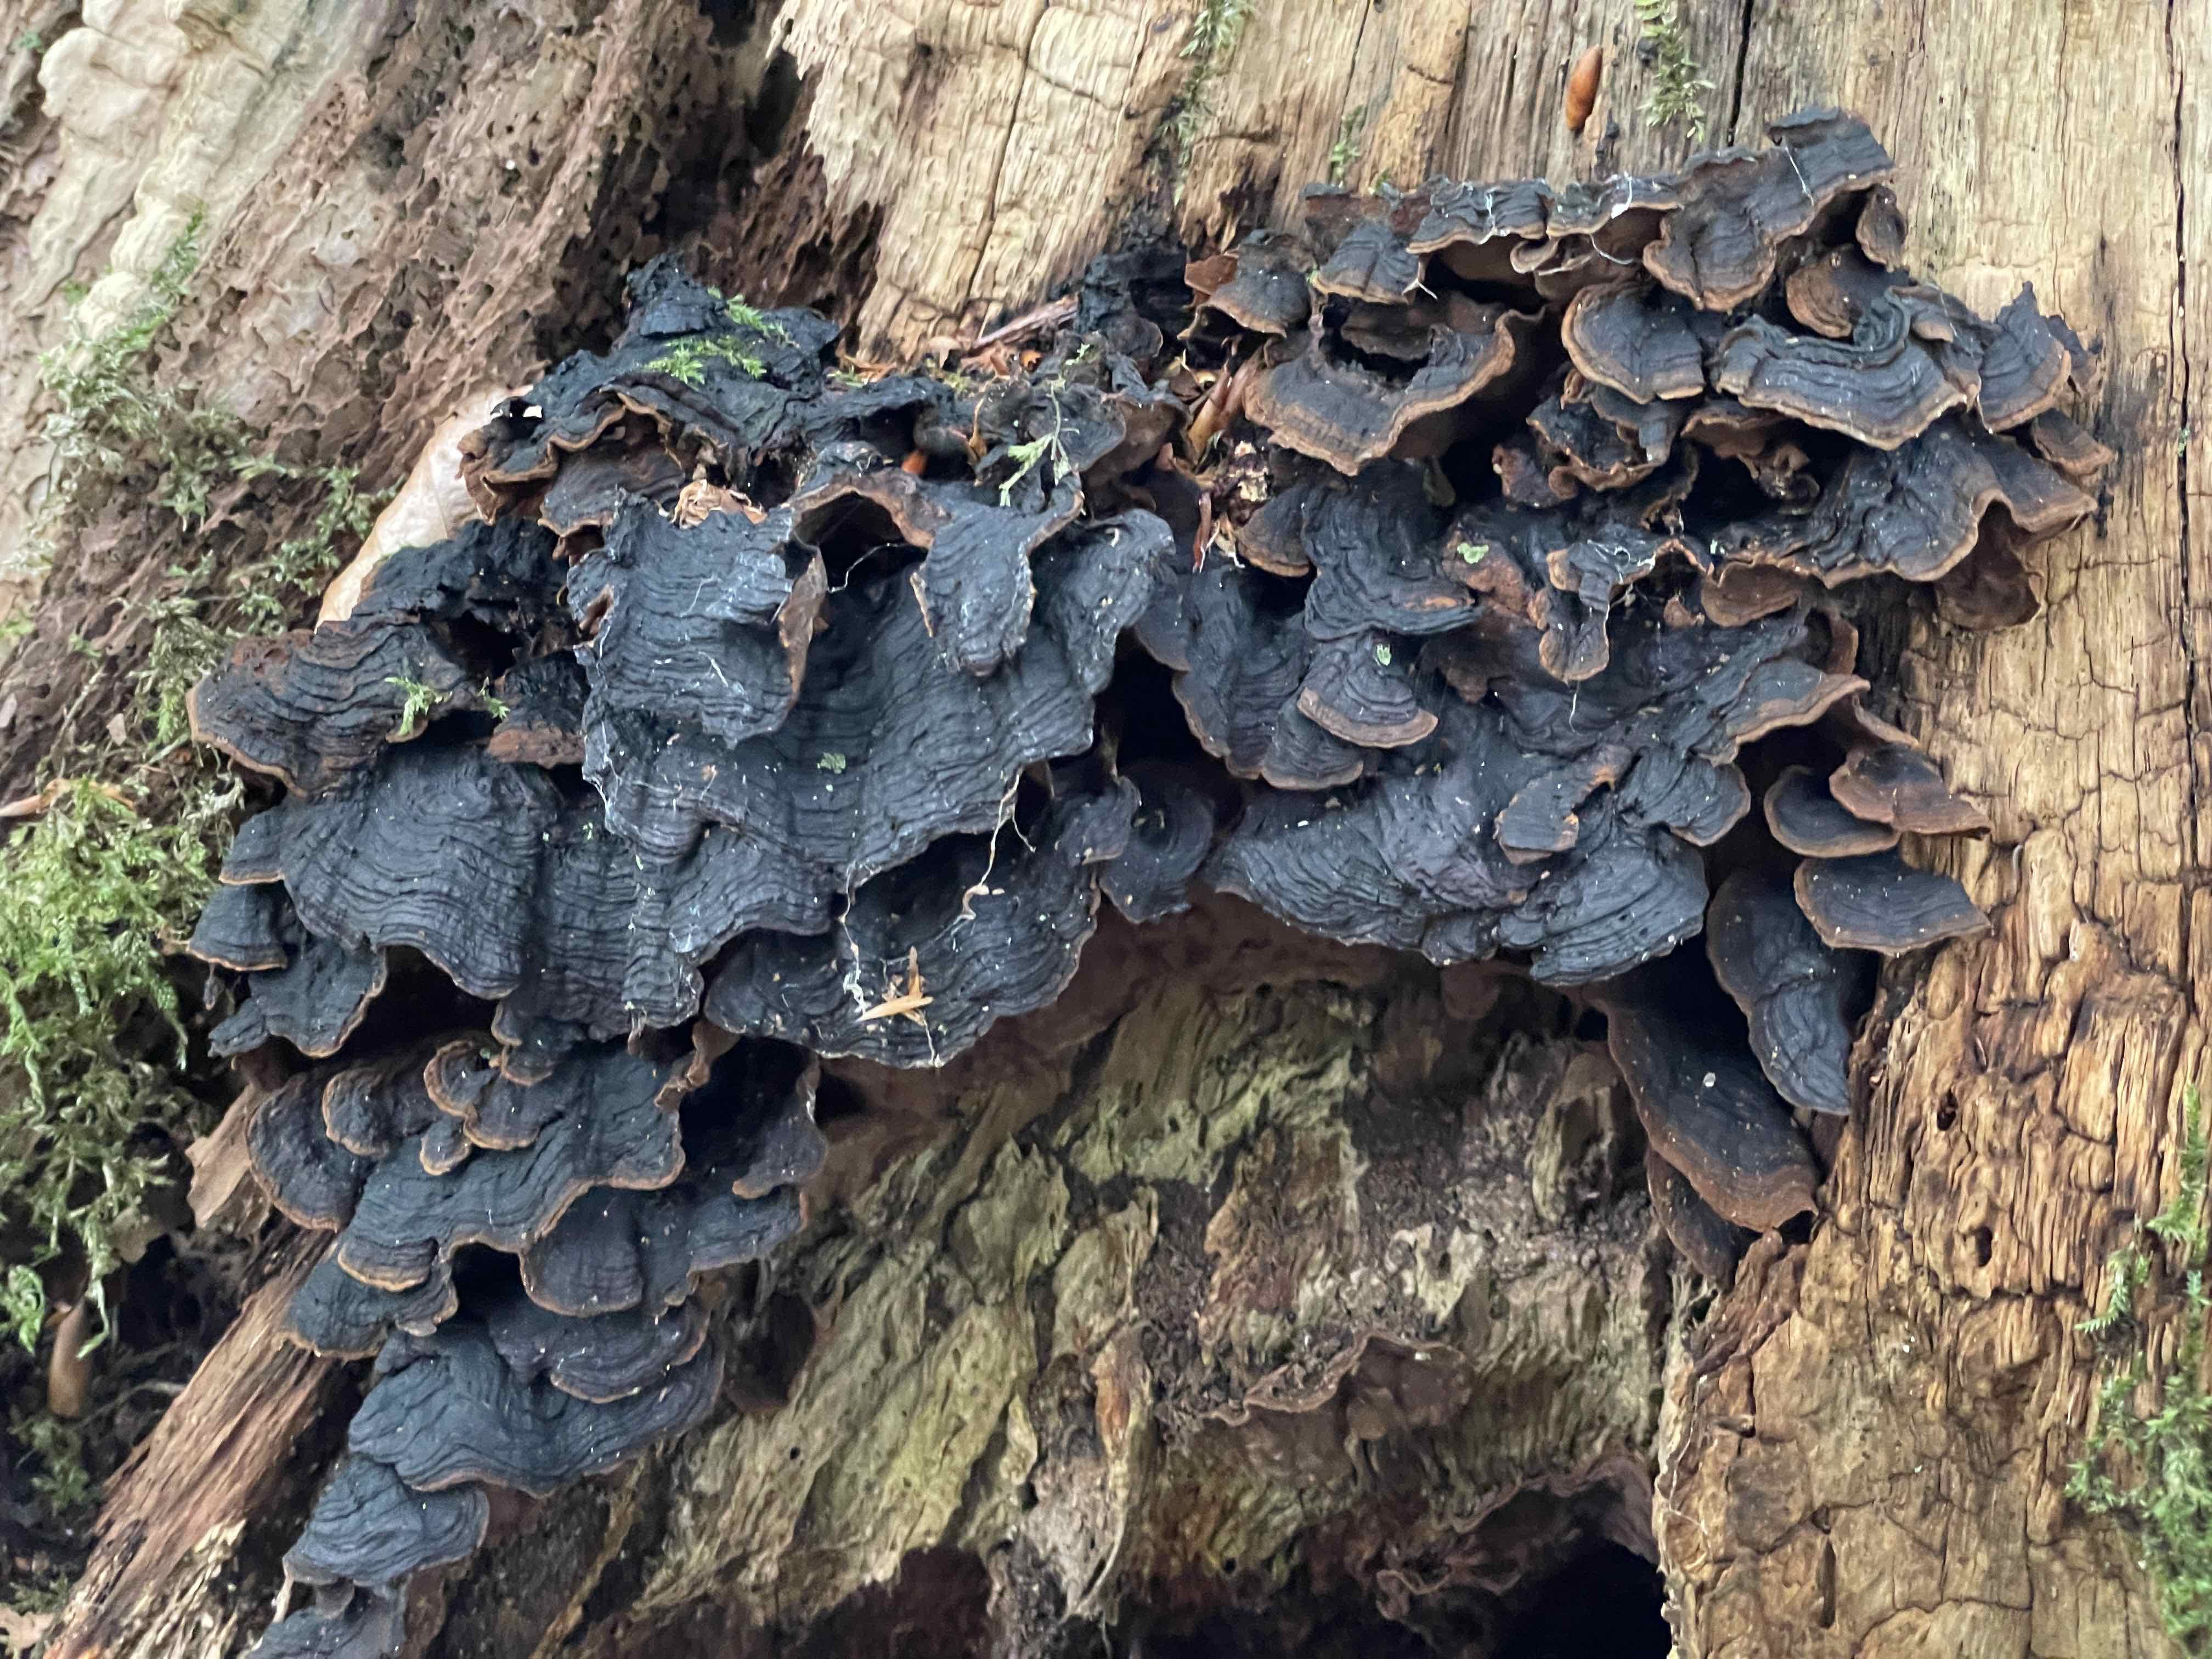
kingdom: Fungi
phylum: Basidiomycota
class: Agaricomycetes
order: Hymenochaetales
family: Hymenochaetaceae
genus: Hymenochaete
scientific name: Hymenochaete rubiginosa
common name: stiv ruslædersvamp
